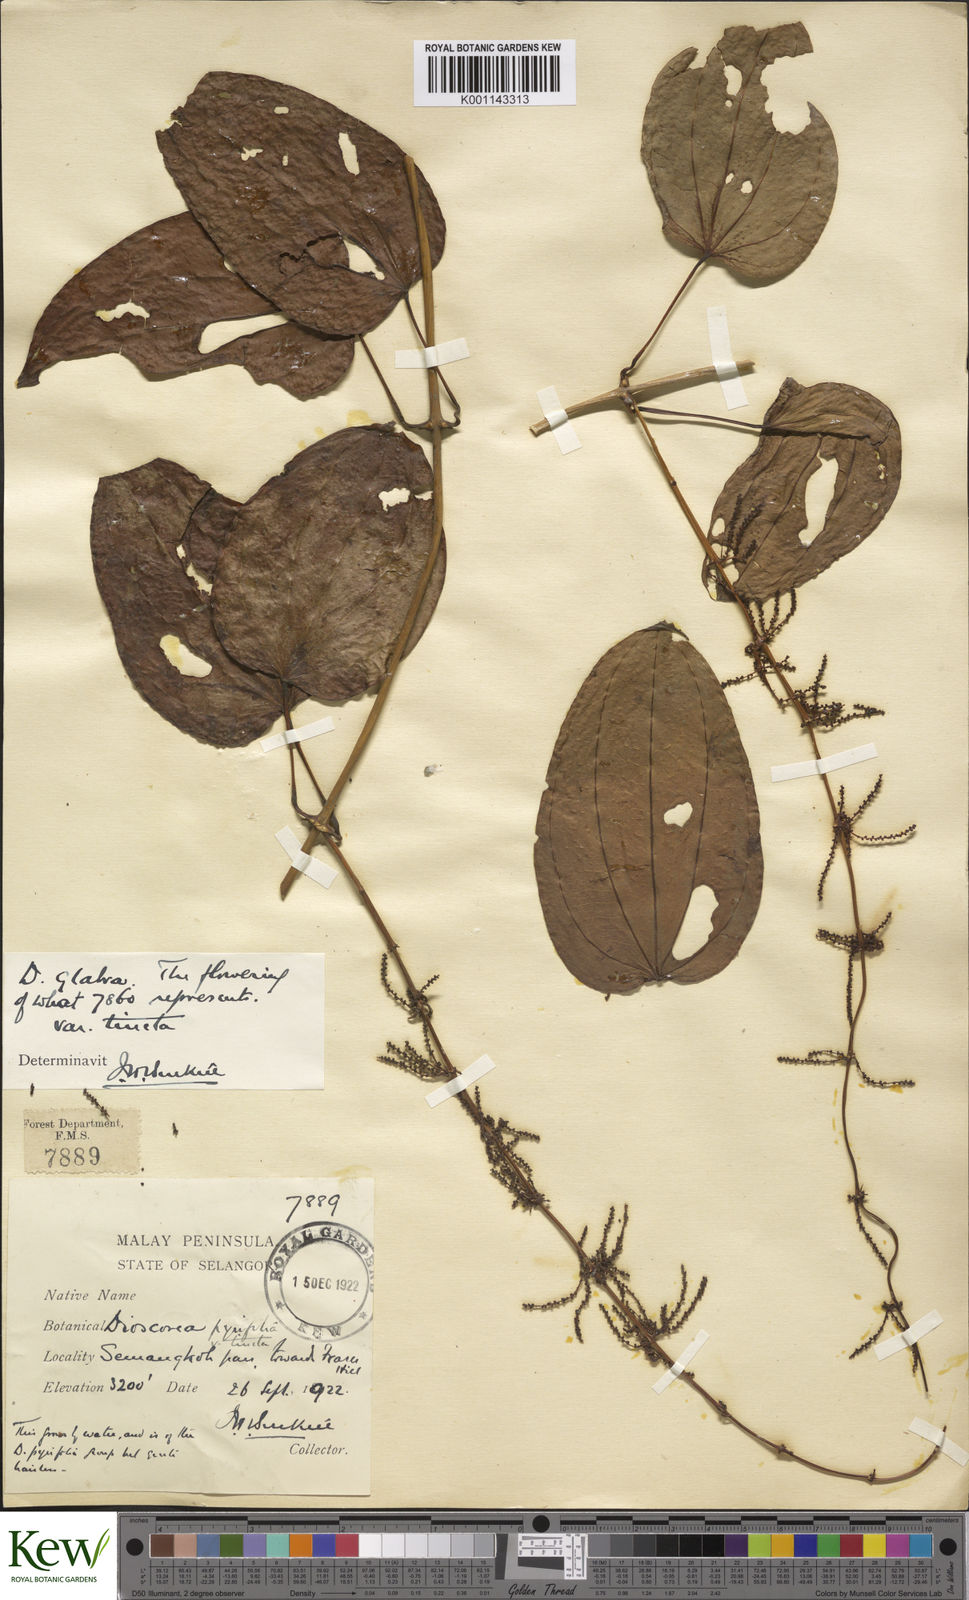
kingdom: Plantae
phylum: Tracheophyta
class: Liliopsida
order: Dioscoreales
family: Dioscoreaceae
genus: Dioscorea
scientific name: Dioscorea glabra
